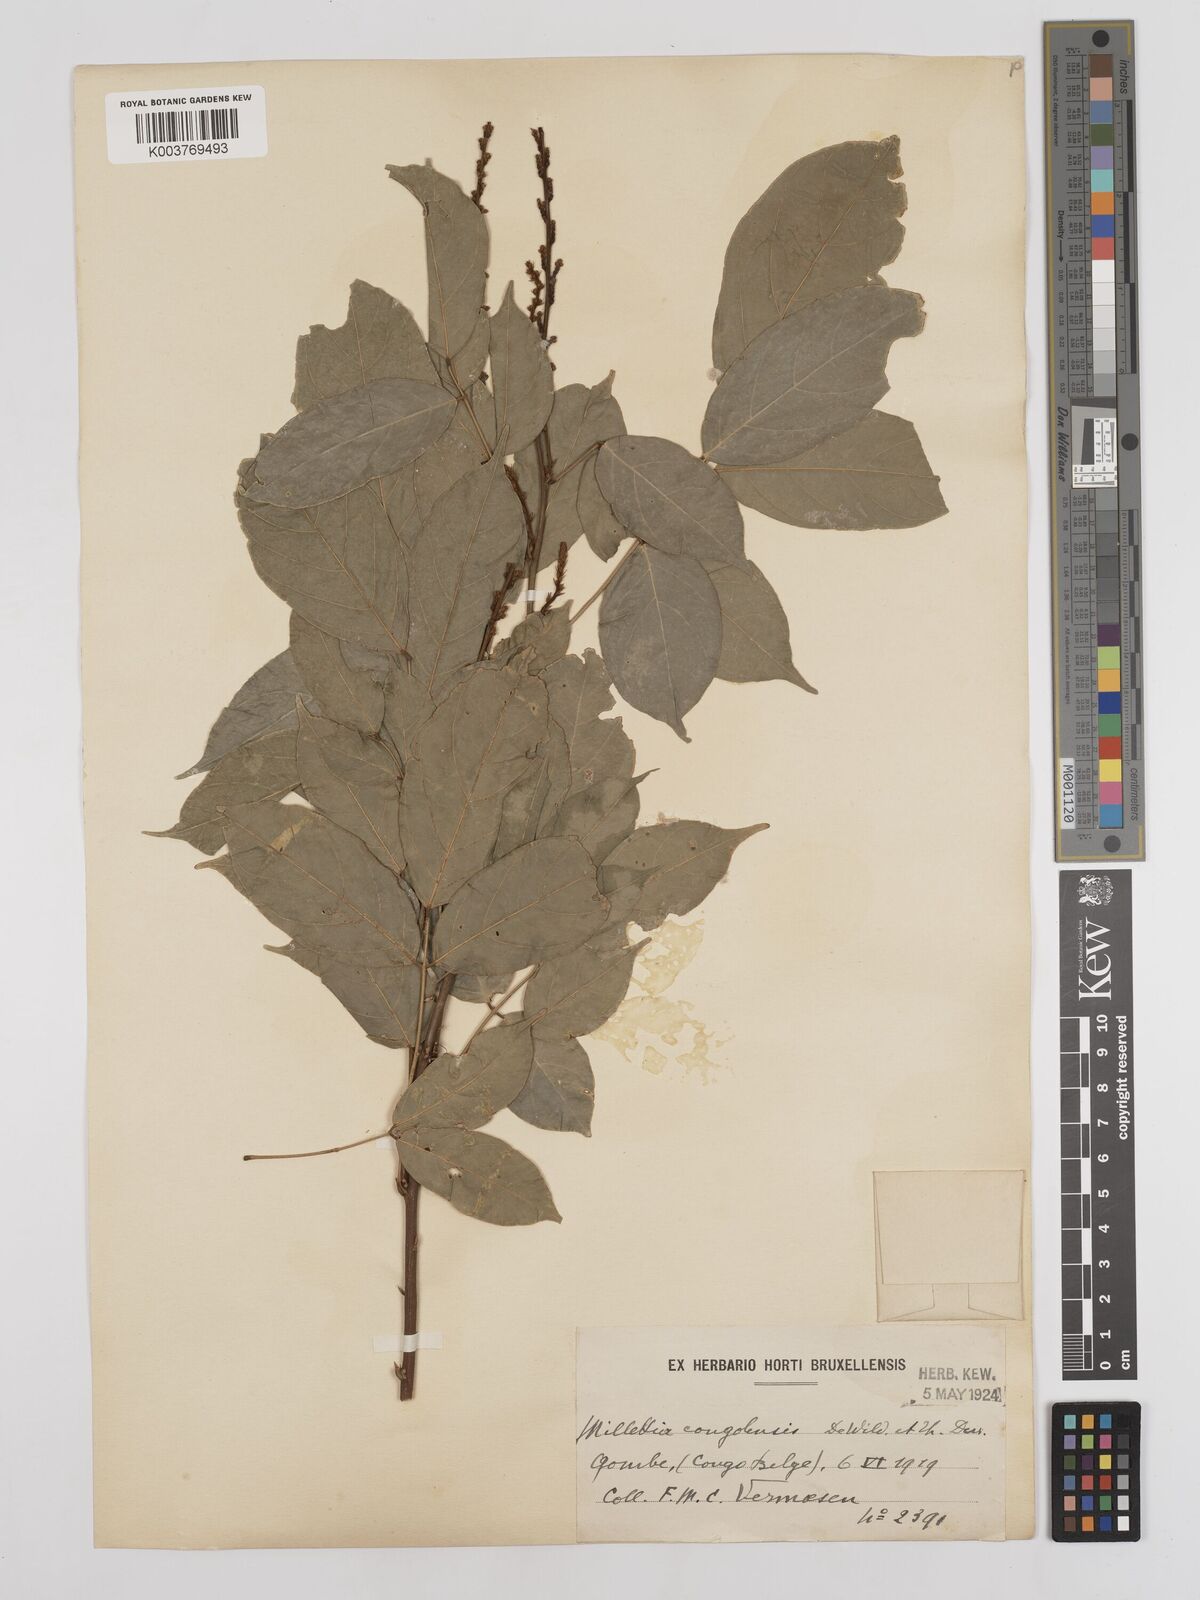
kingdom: Plantae
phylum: Tracheophyta
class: Magnoliopsida
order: Fabales
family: Fabaceae
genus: Millettia
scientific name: Millettia macroura
